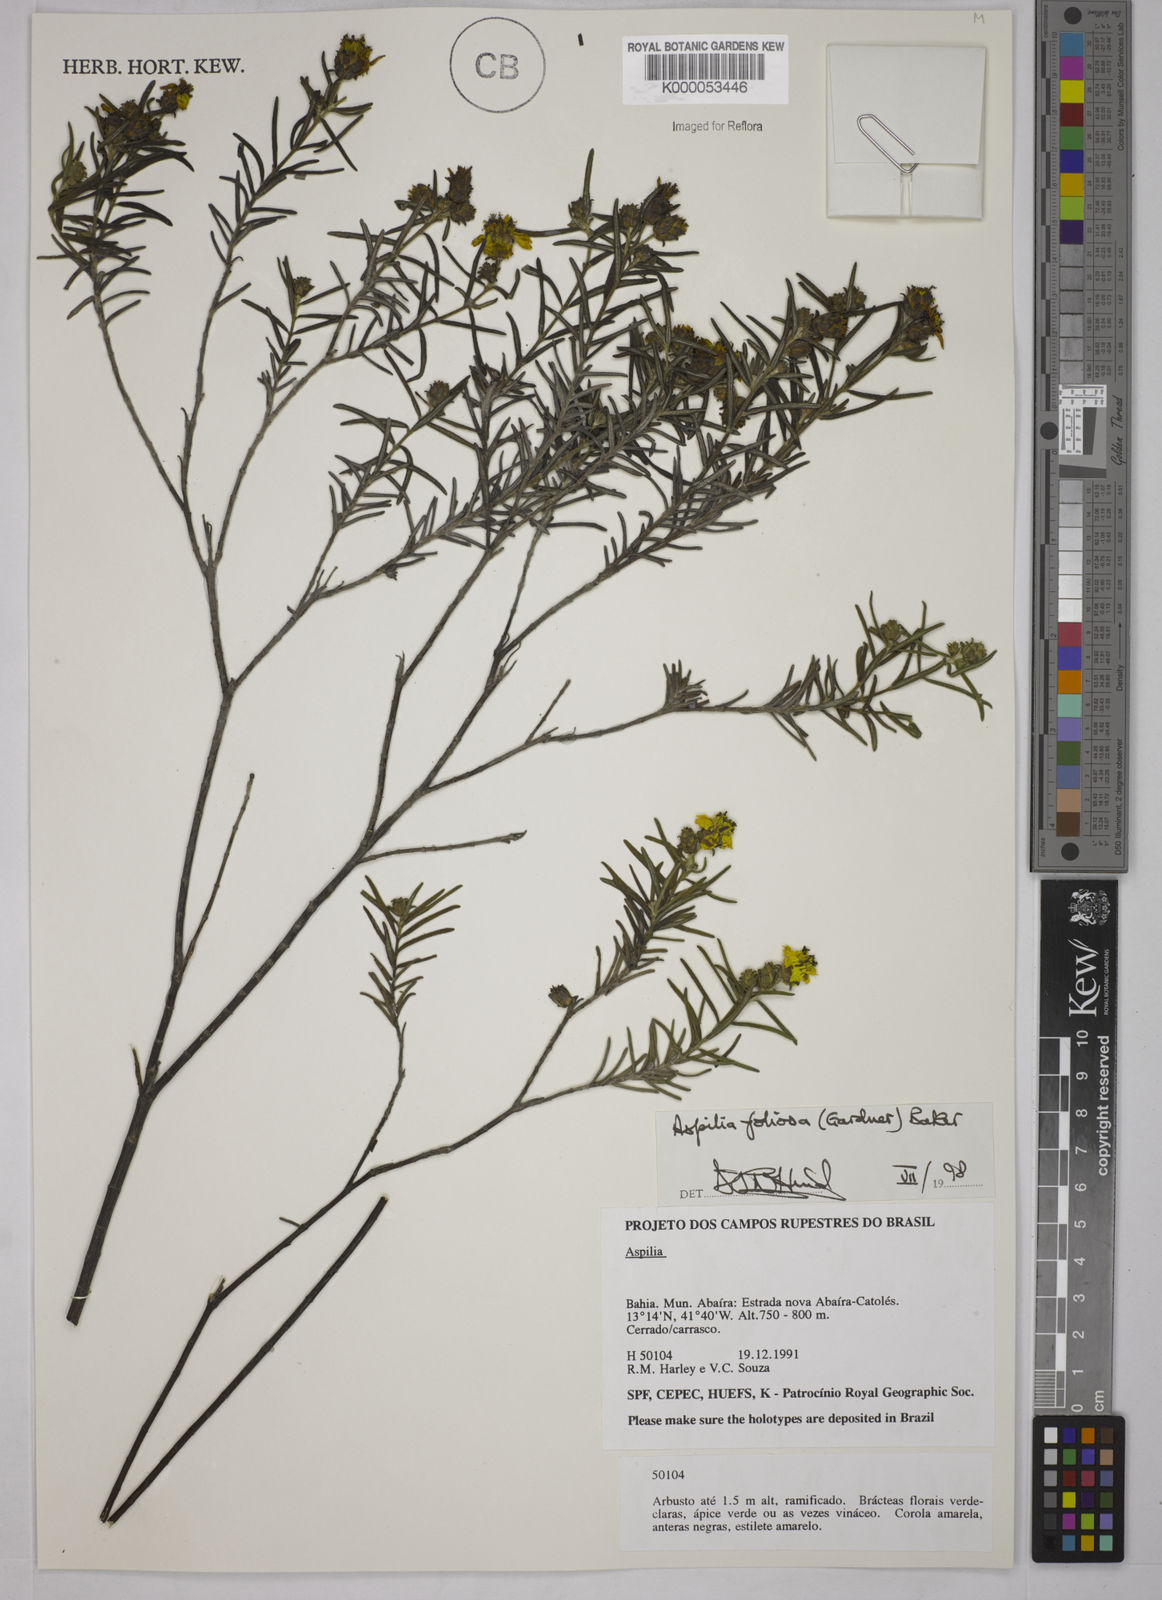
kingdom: Plantae
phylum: Tracheophyta
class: Magnoliopsida
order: Asterales
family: Asteraceae
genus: Aspilia
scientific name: Aspilia
